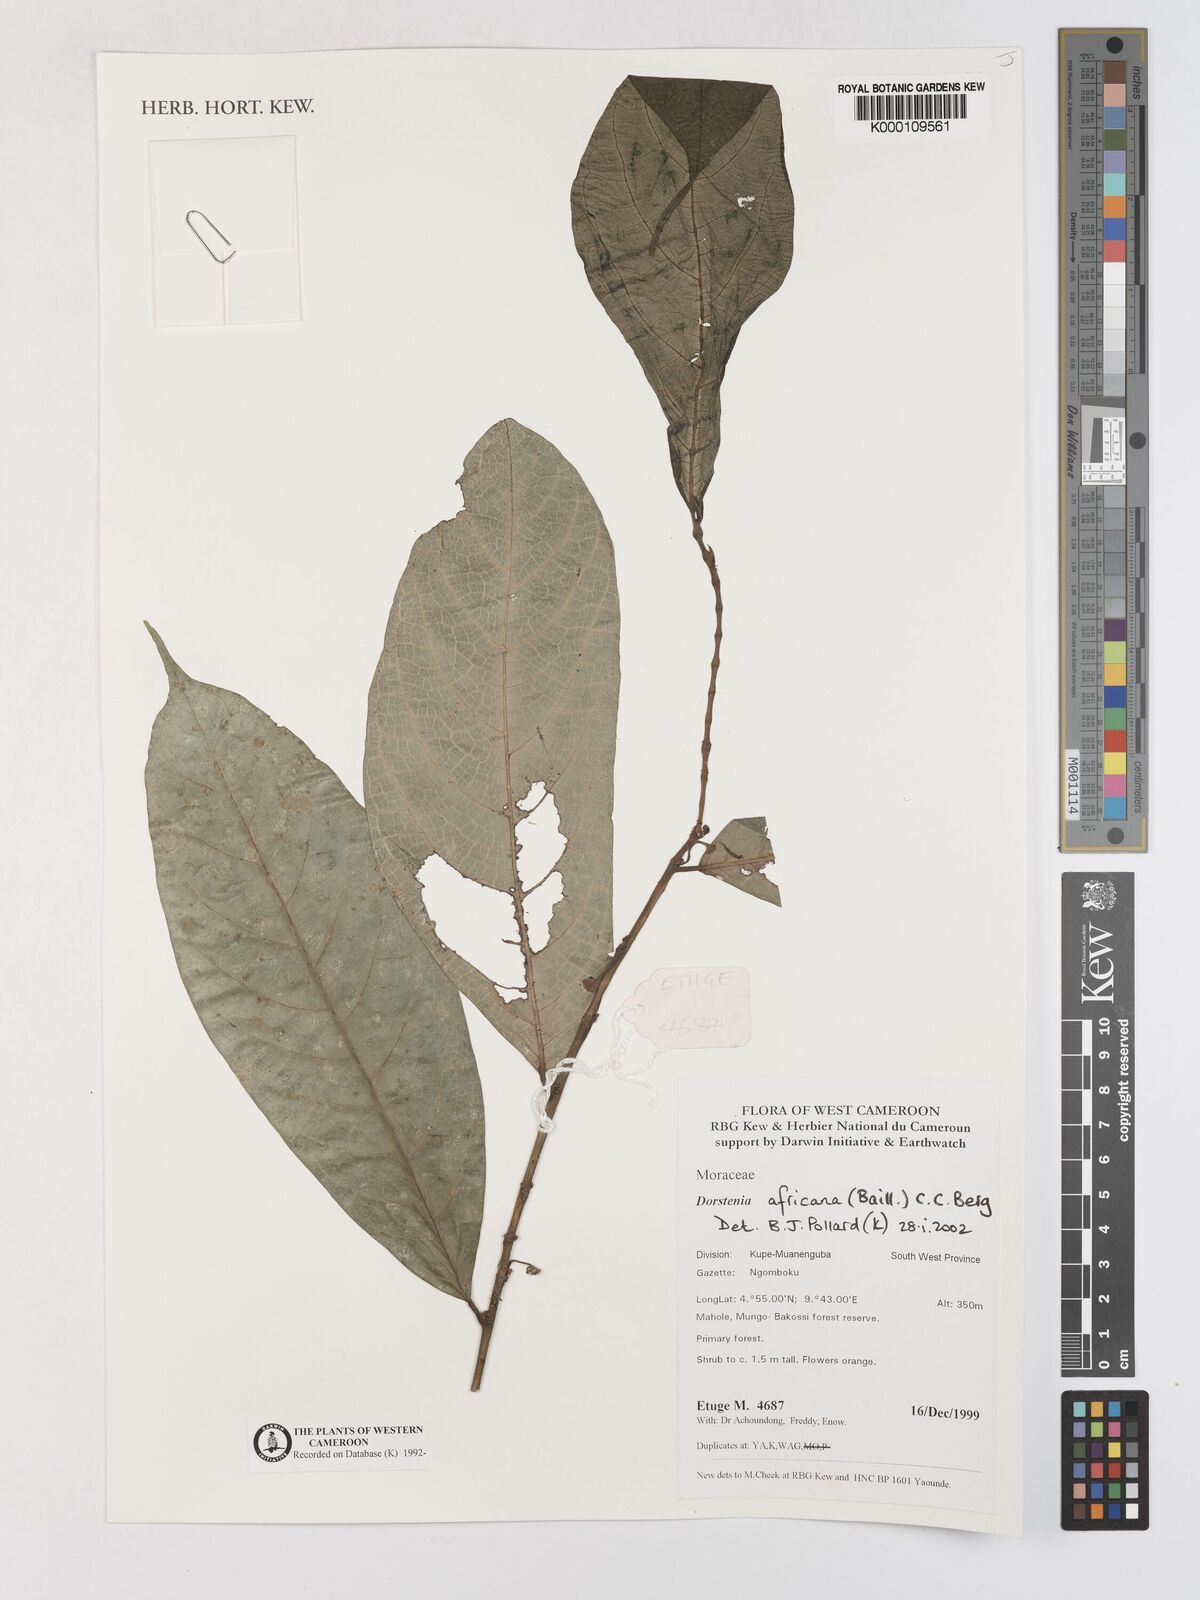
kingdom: Plantae
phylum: Tracheophyta
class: Magnoliopsida
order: Rosales
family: Moraceae
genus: Dorstenia
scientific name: Dorstenia africana
